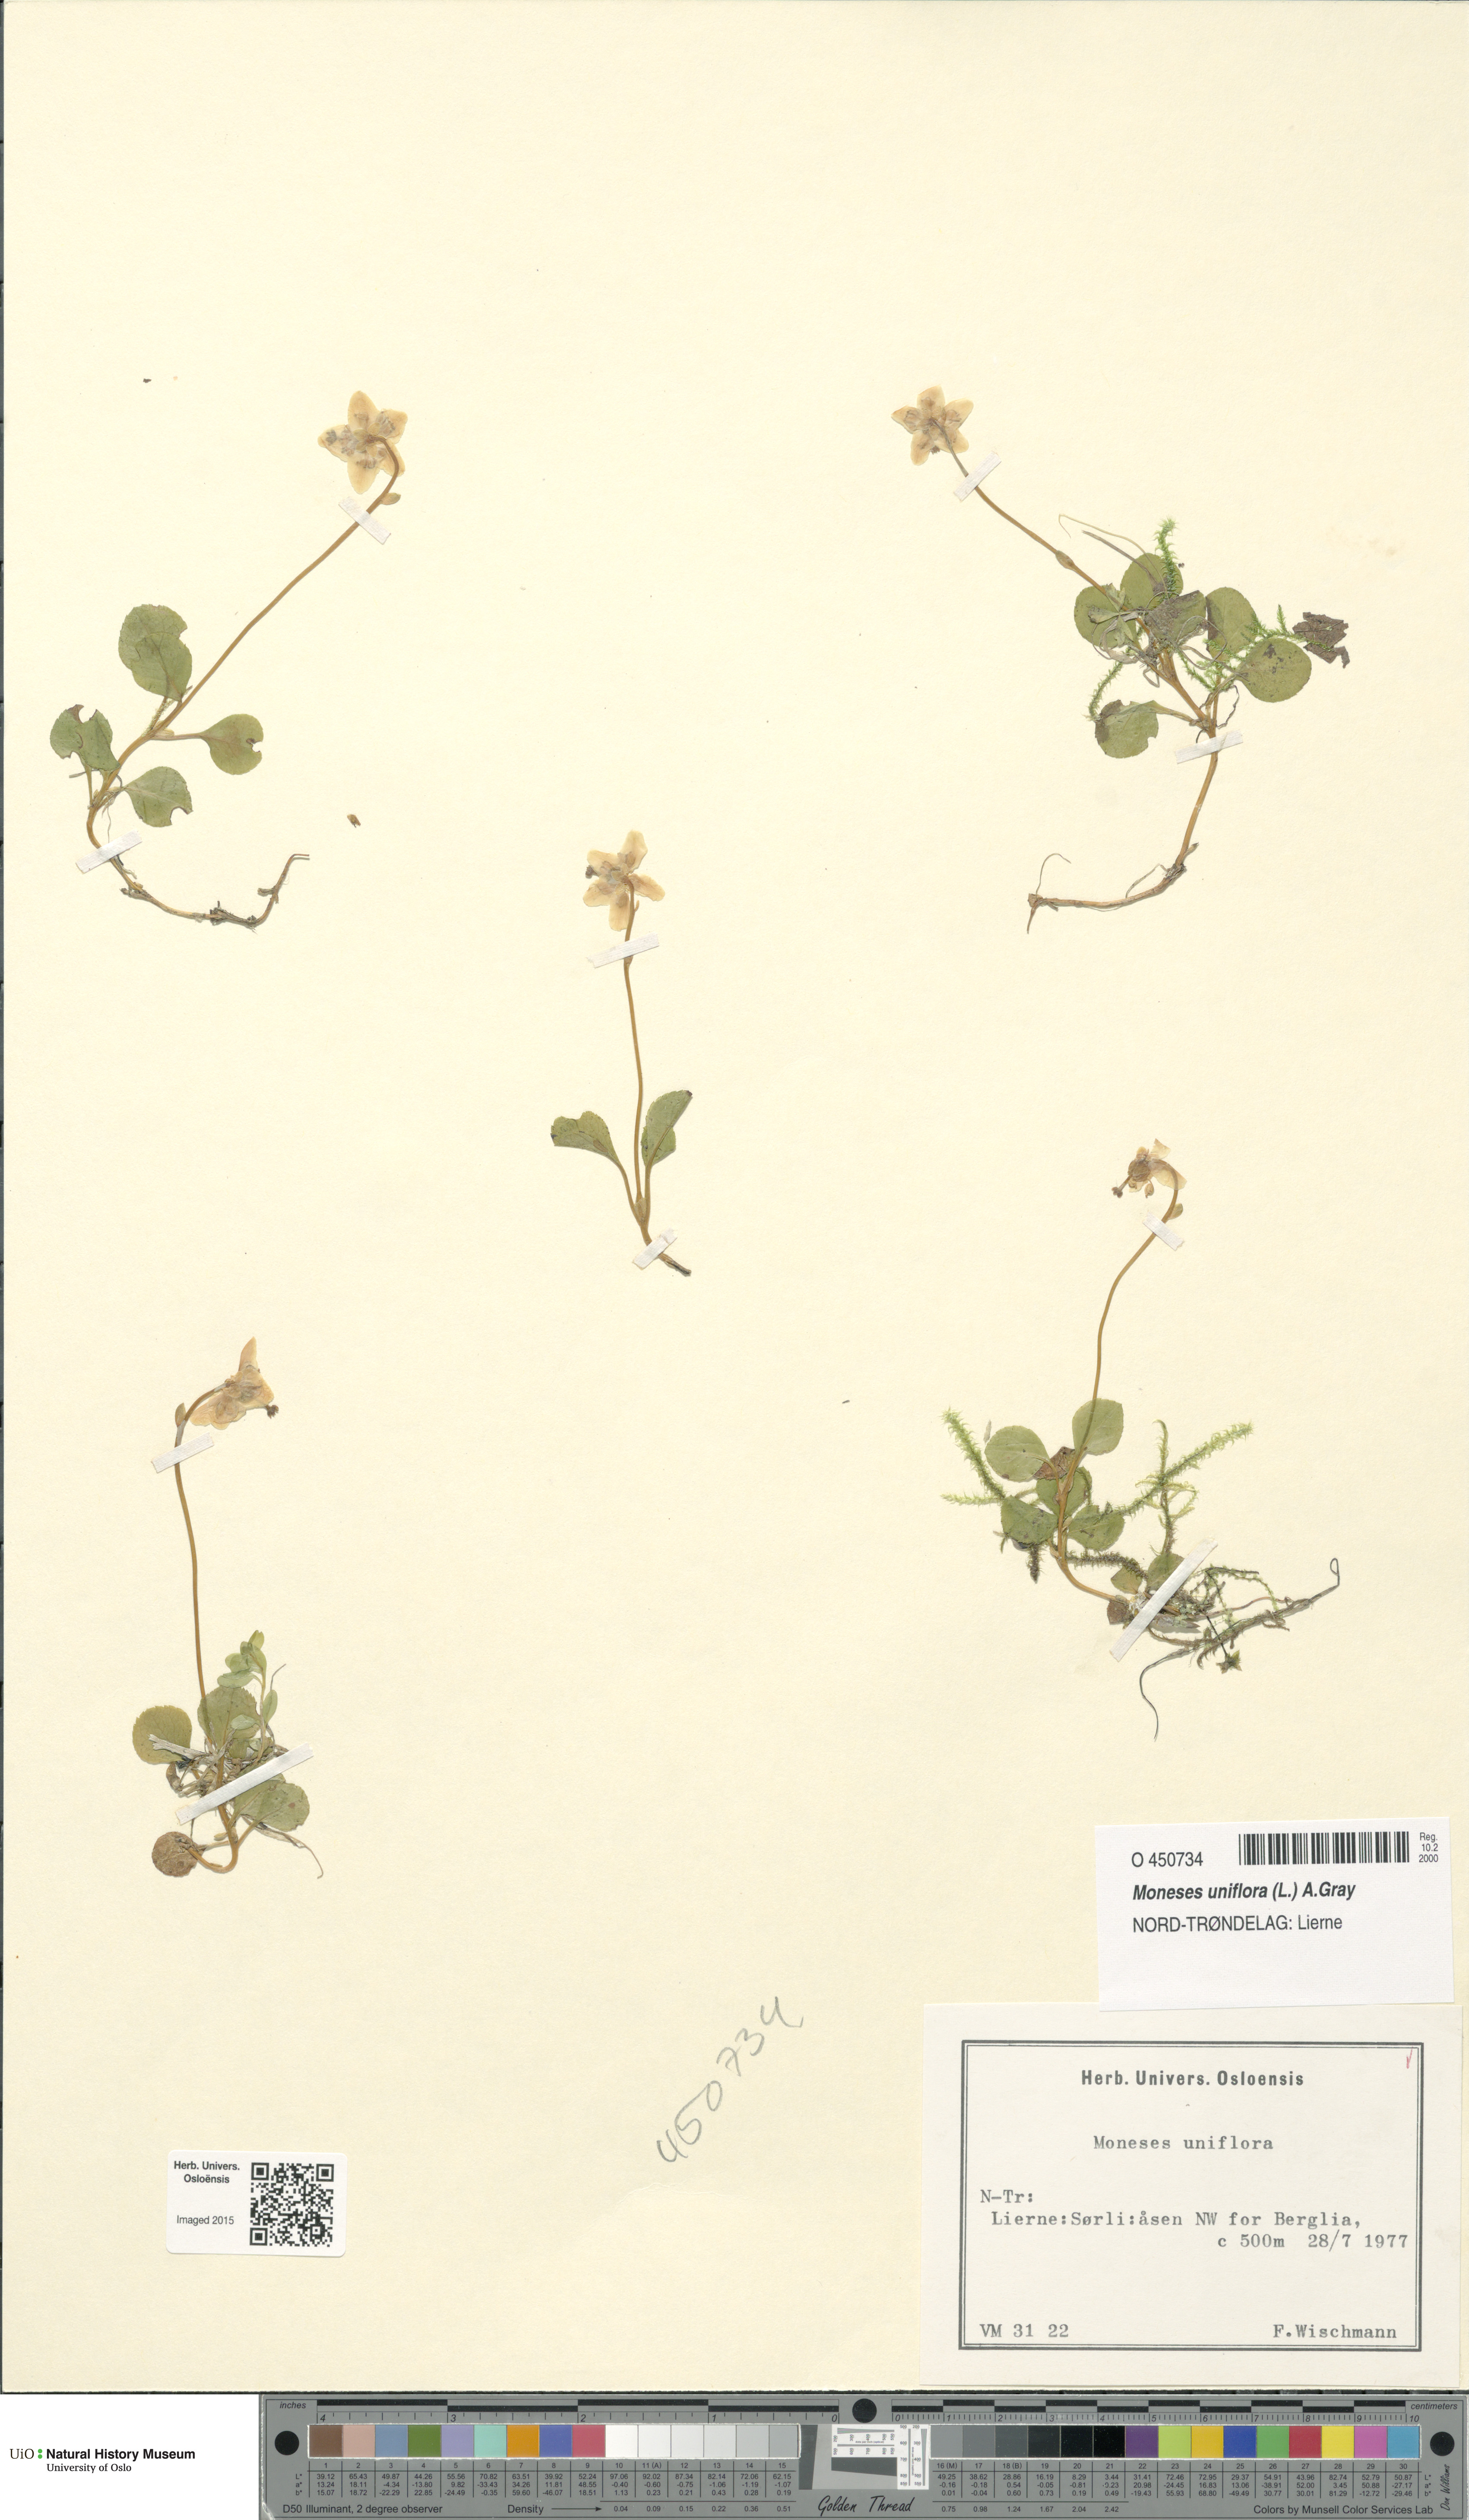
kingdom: Plantae
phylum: Tracheophyta
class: Magnoliopsida
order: Ericales
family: Ericaceae
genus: Moneses
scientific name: Moneses uniflora
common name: One-flowered wintergreen
